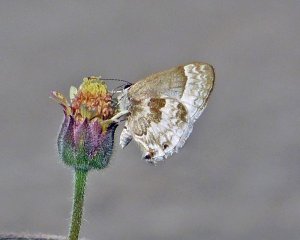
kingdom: Animalia
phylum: Arthropoda
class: Insecta
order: Lepidoptera
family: Lycaenidae
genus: Strymon
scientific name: Strymon albata
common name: White Scrub-Hairstreak
